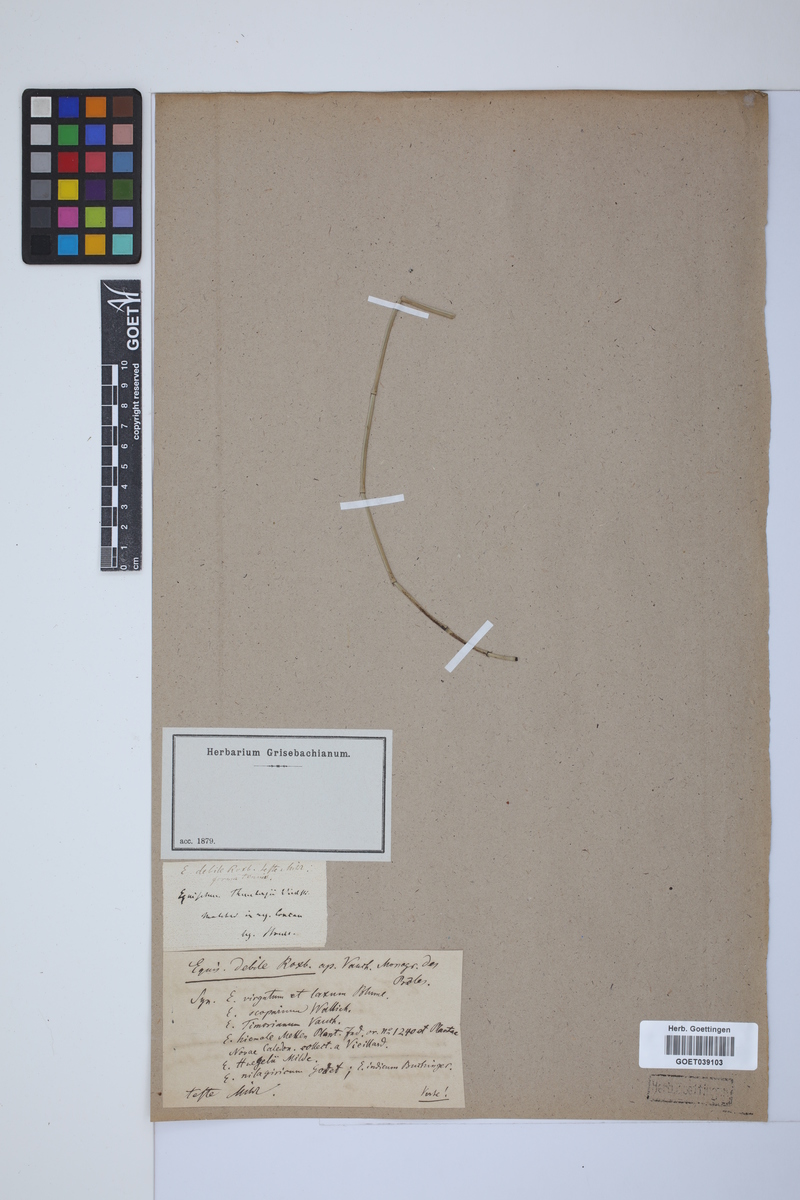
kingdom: Plantae
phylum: Tracheophyta
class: Polypodiopsida
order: Equisetales
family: Equisetaceae
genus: Equisetum
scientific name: Equisetum ramosissimum
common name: Branched horsetail
